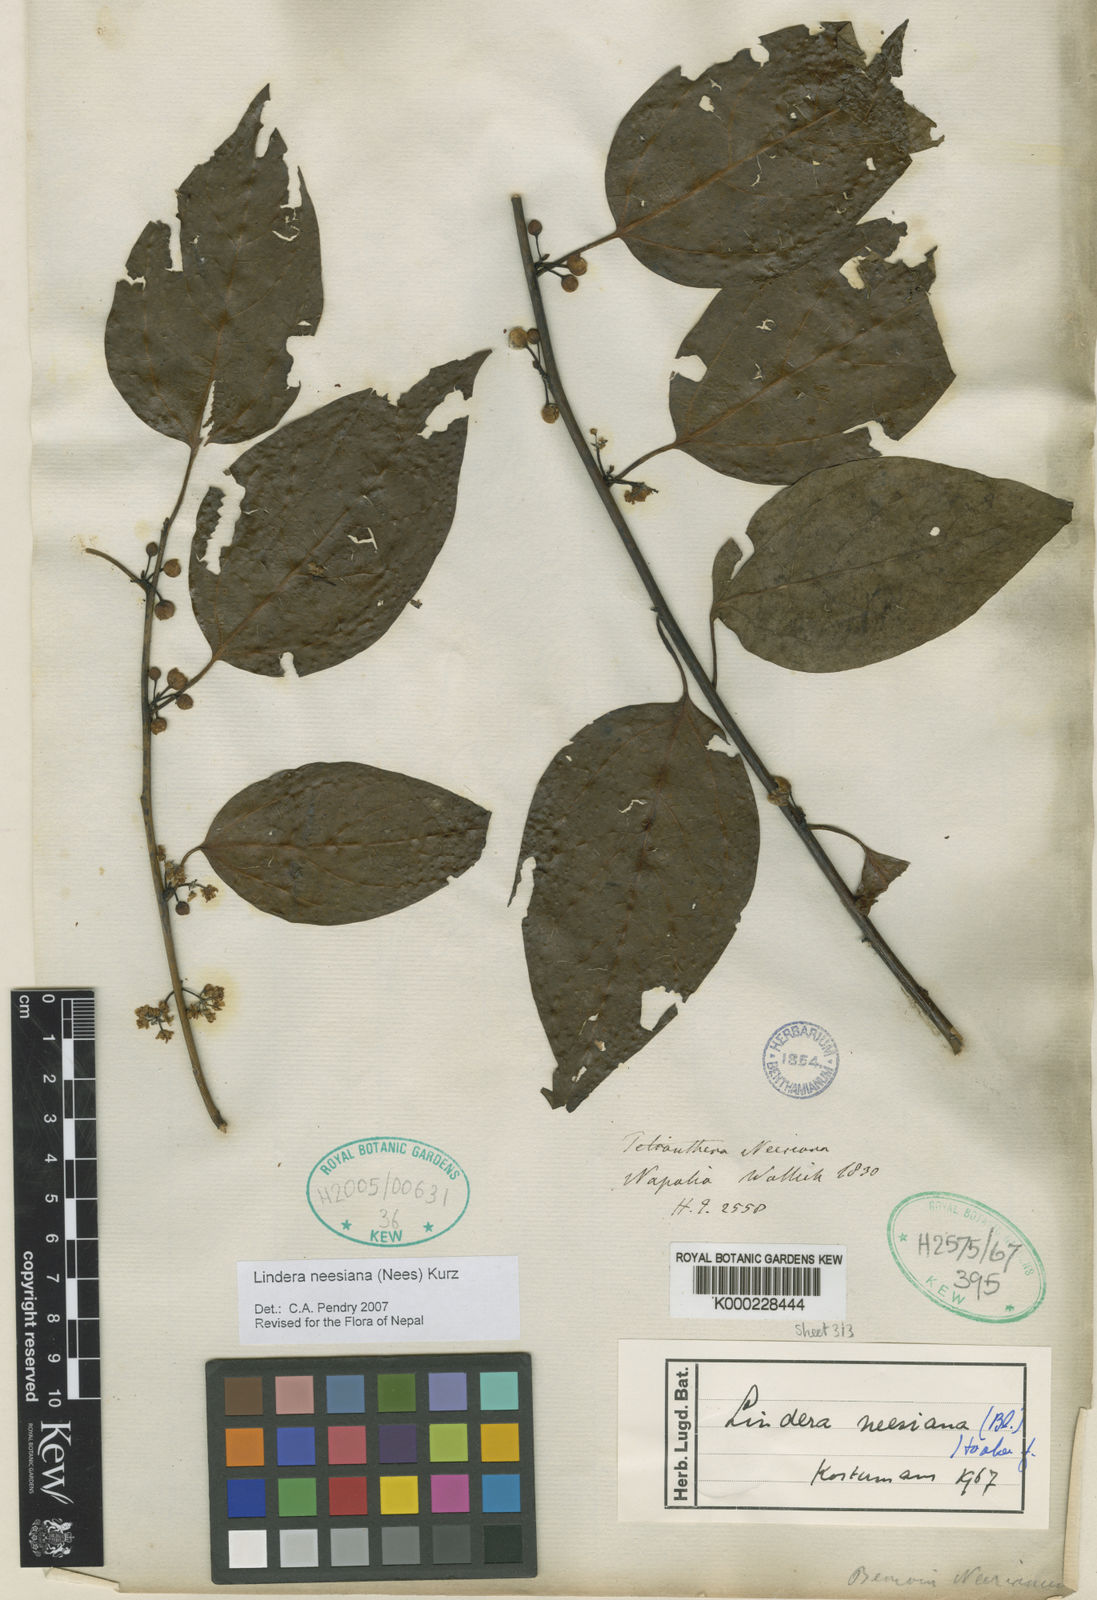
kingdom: Plantae
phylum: Tracheophyta
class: Magnoliopsida
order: Laurales
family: Lauraceae
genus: Lindera
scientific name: Lindera
